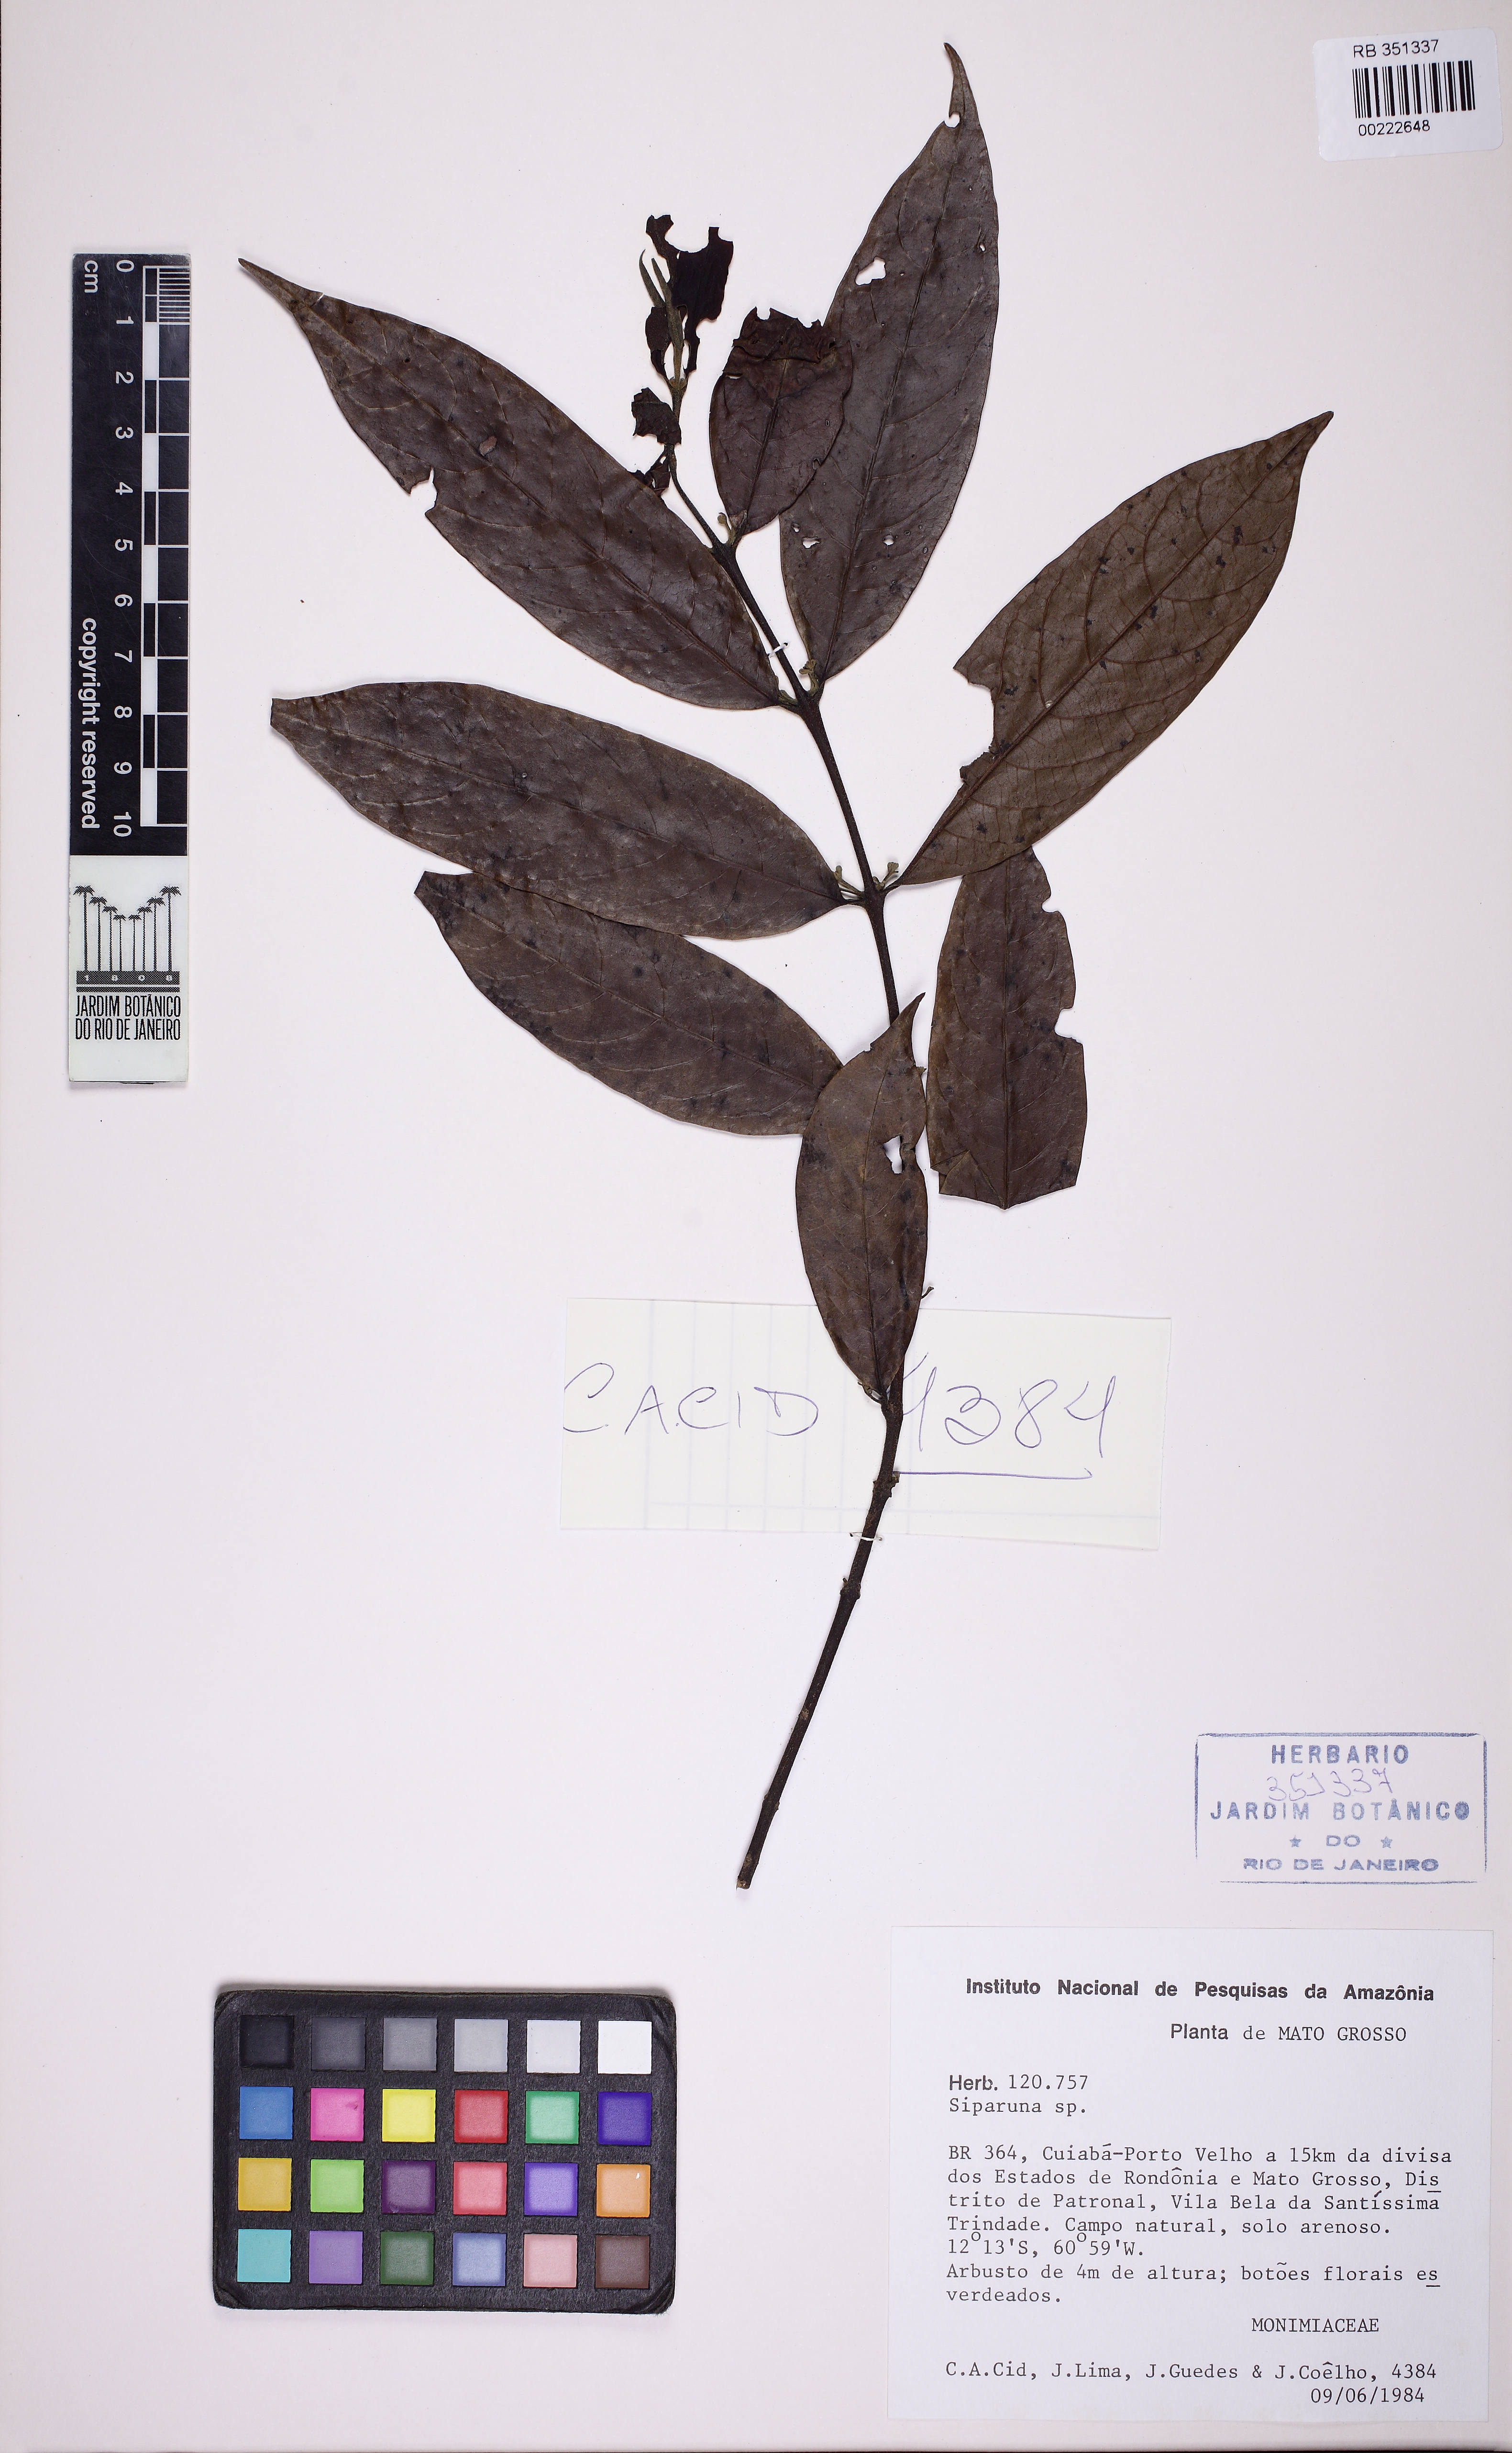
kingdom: Plantae
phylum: Tracheophyta
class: Magnoliopsida
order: Laurales
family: Siparunaceae
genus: Siparuna
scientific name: Siparuna
